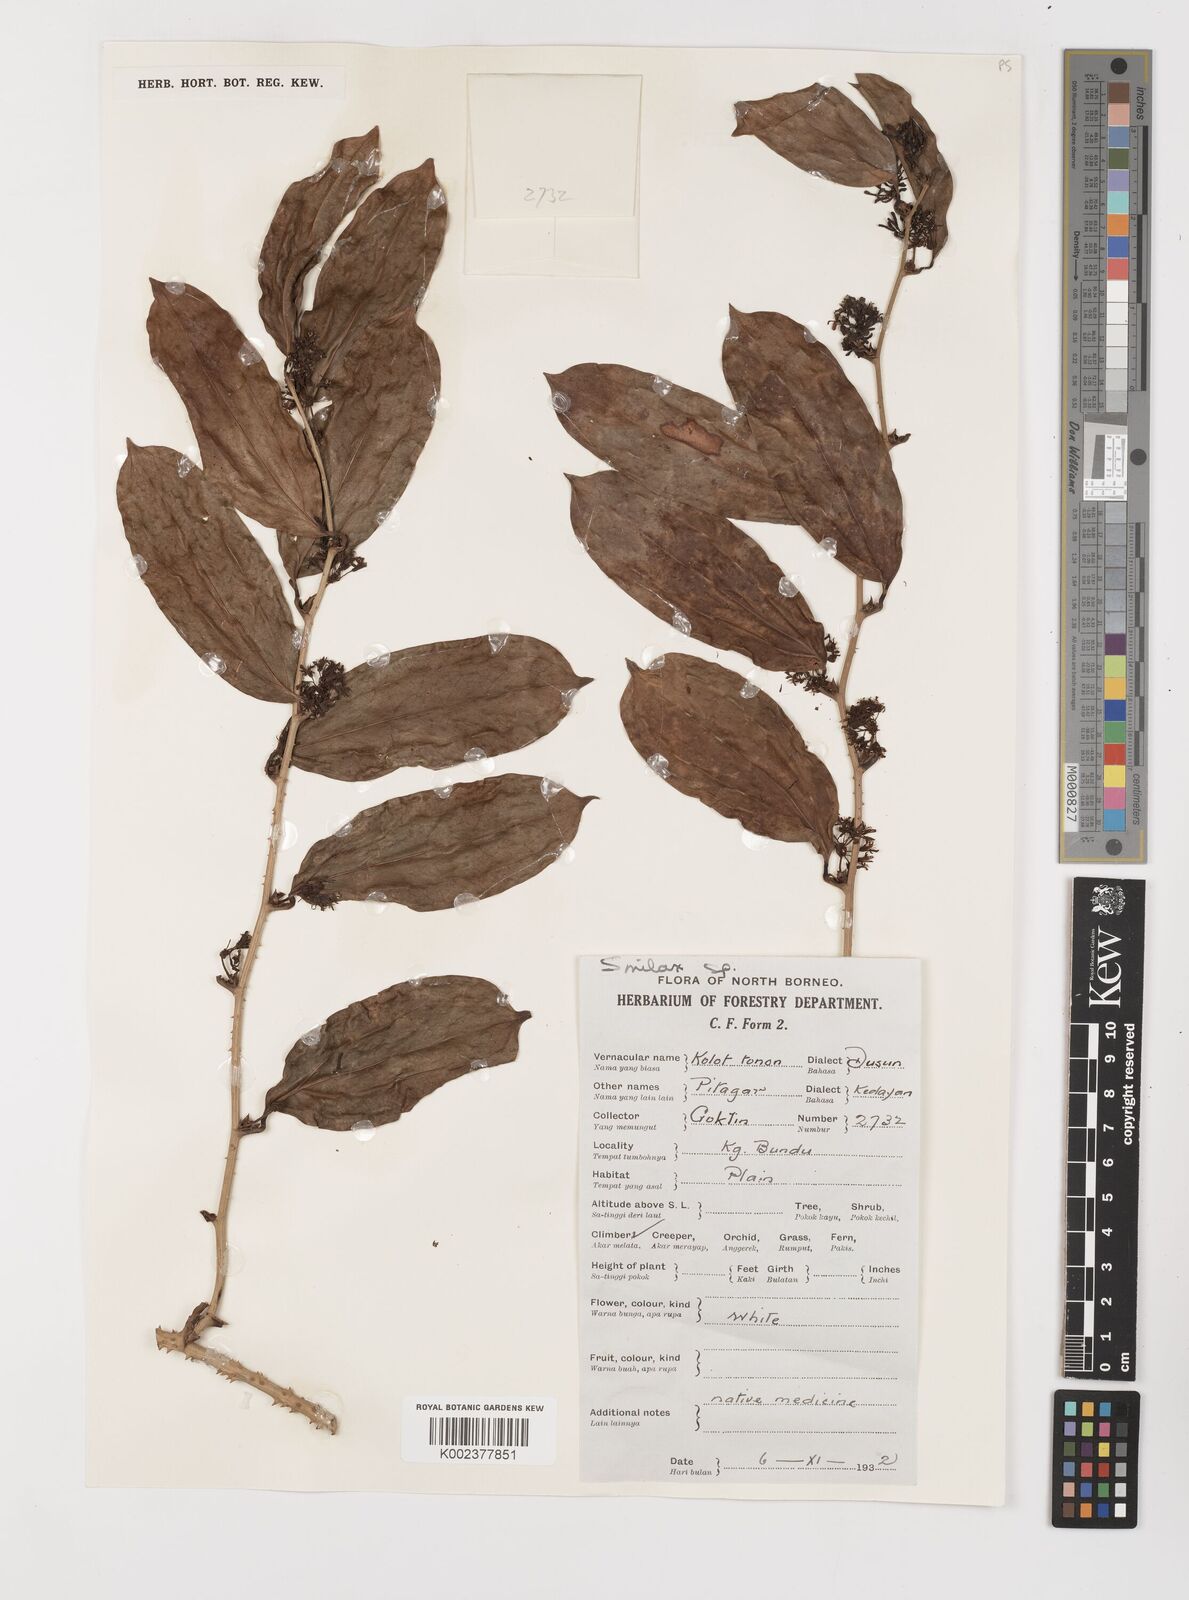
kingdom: Plantae
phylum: Tracheophyta
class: Liliopsida
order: Liliales
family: Smilacaceae
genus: Smilax
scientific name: Smilax
